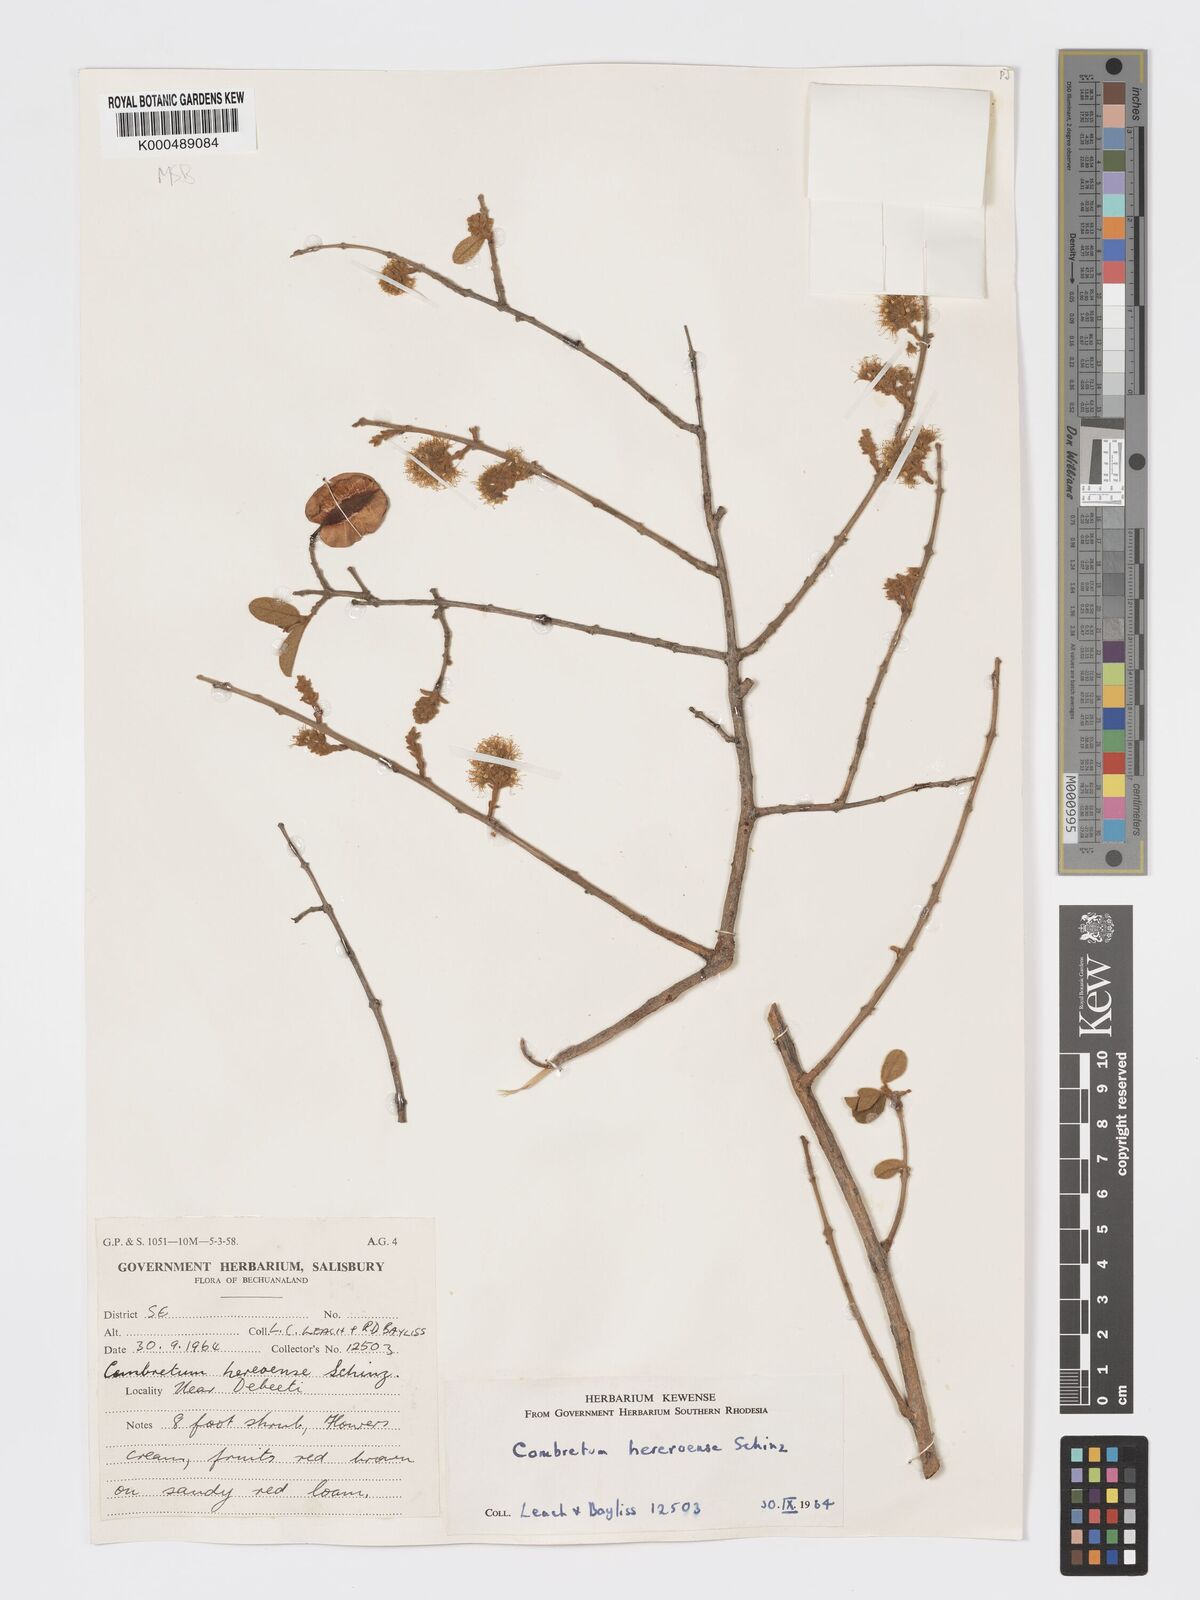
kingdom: Plantae
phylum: Tracheophyta
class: Magnoliopsida
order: Myrtales
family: Combretaceae
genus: Combretum
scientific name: Combretum hereroense
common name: Russet bushwillow
